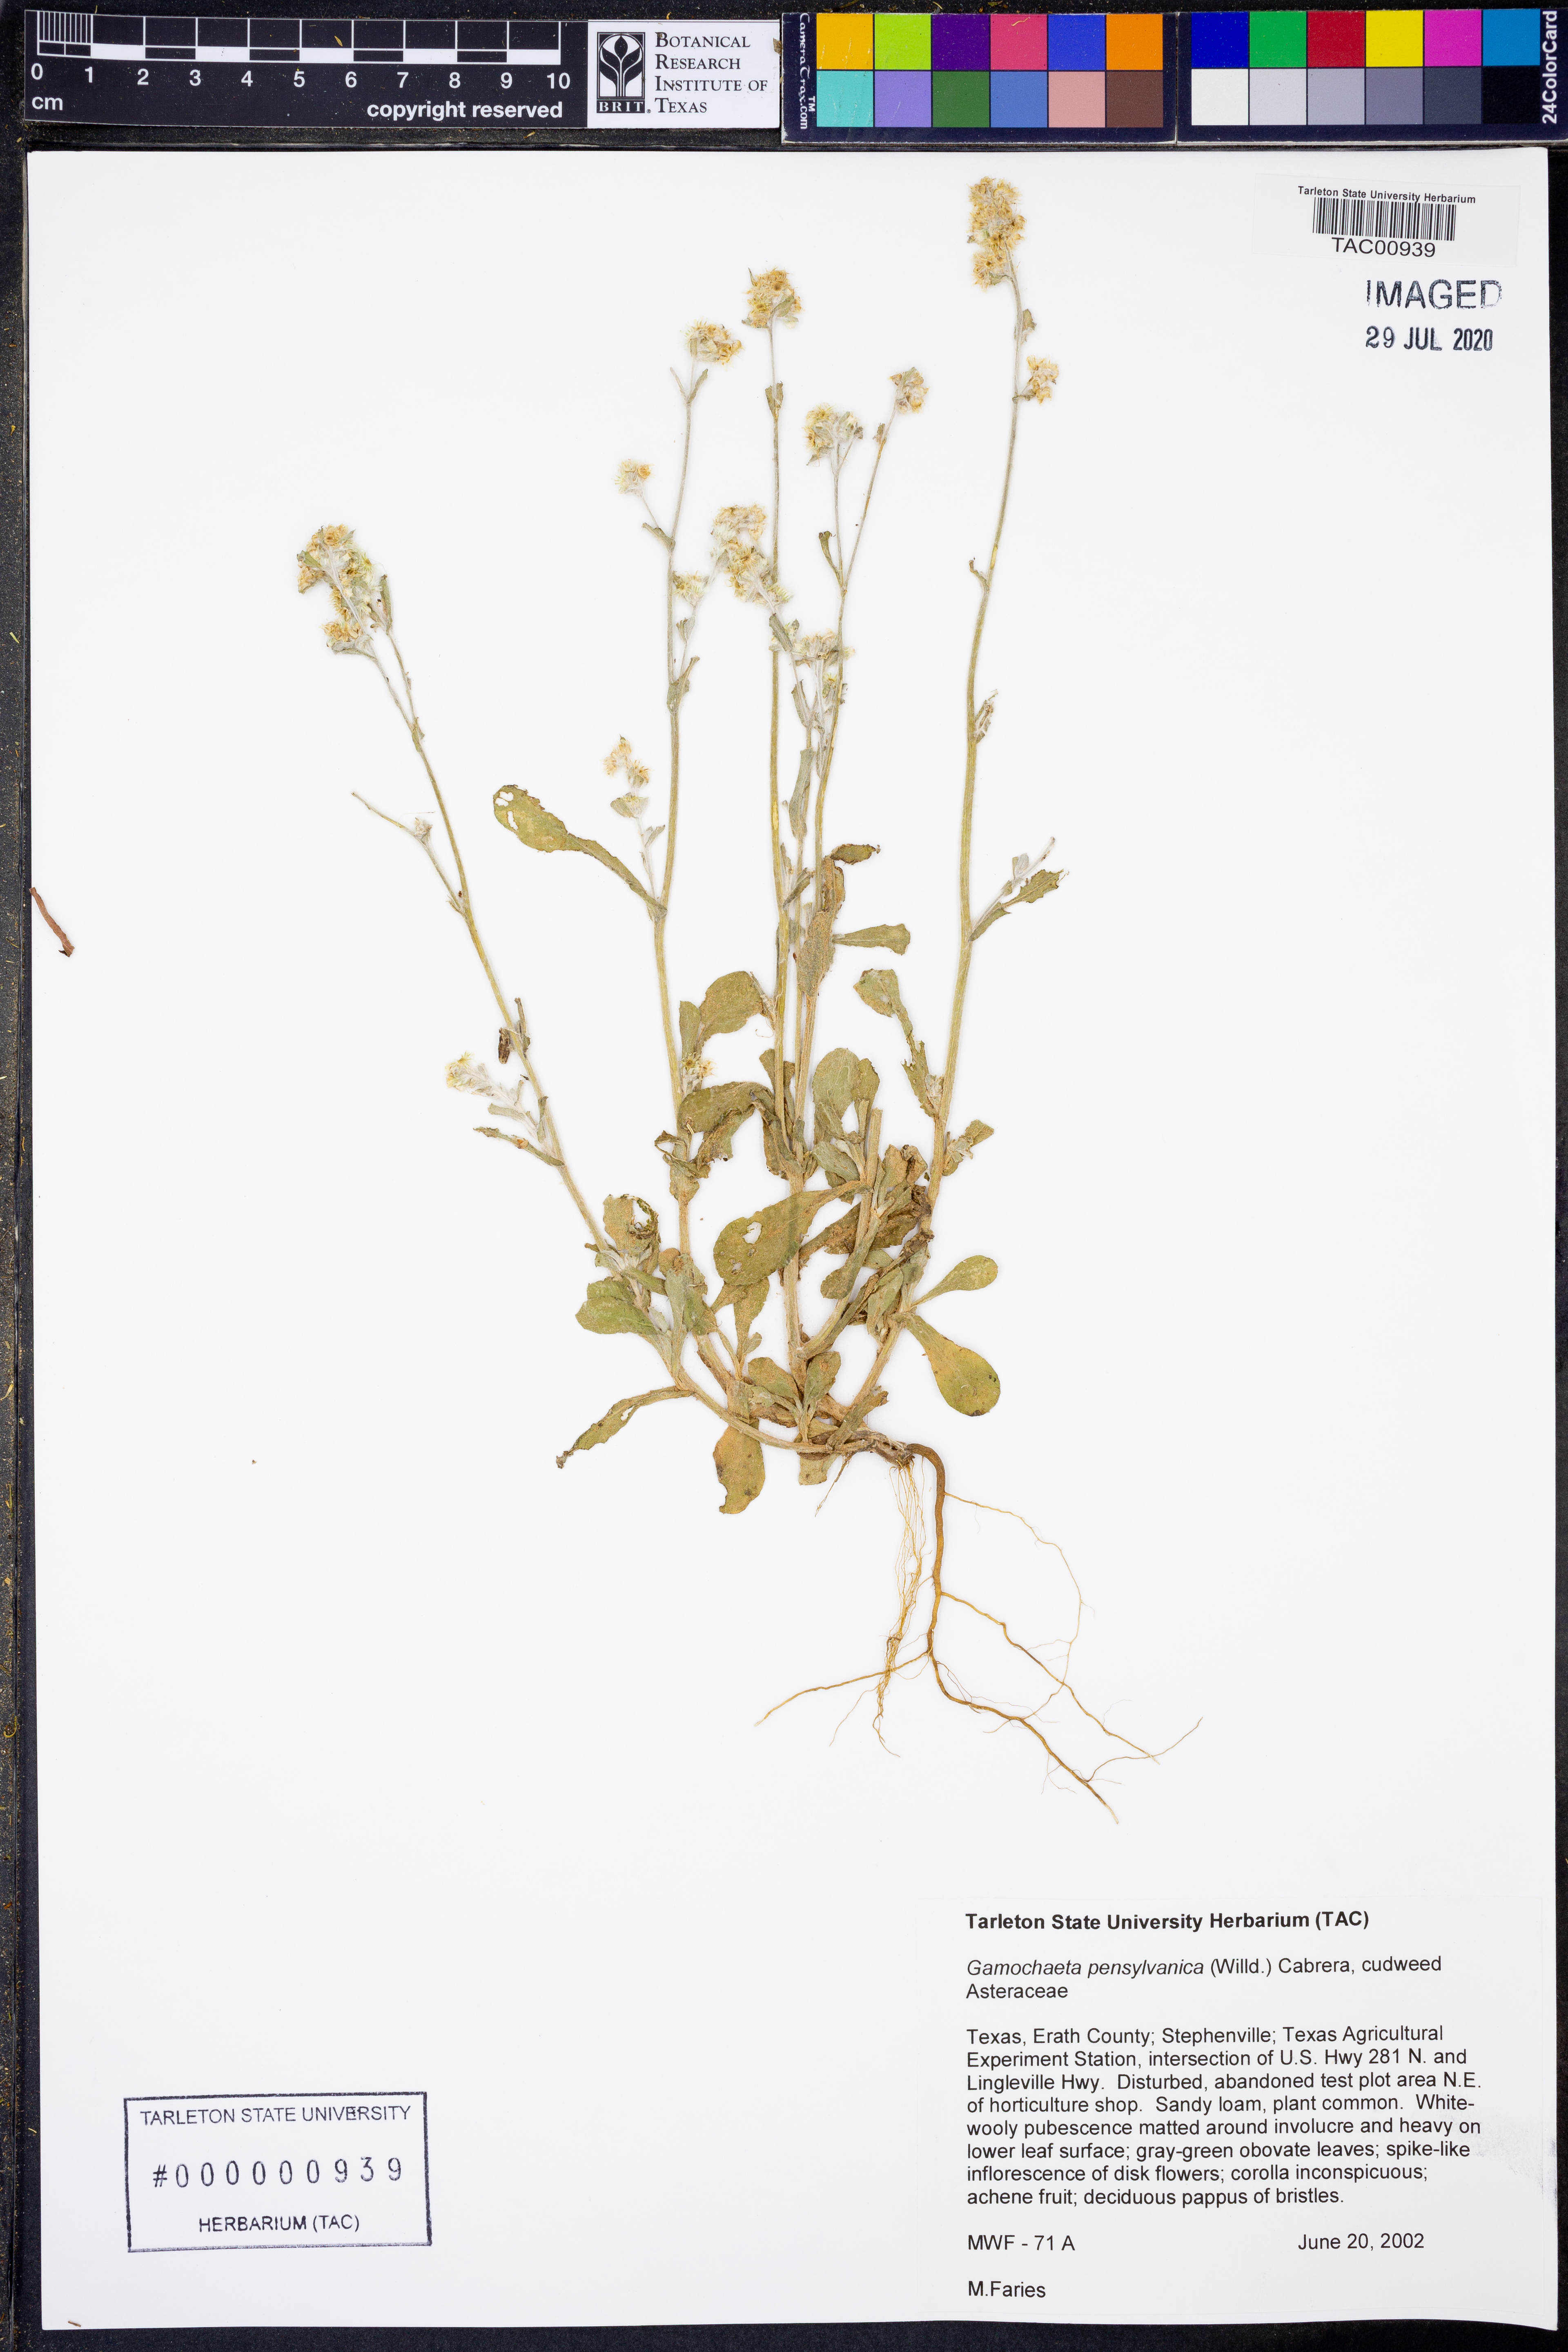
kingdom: Plantae
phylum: Tracheophyta
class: Magnoliopsida
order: Asterales
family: Asteraceae
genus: Gamochaeta
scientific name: Gamochaeta pensylvanica
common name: Pennsylvania everlasting
